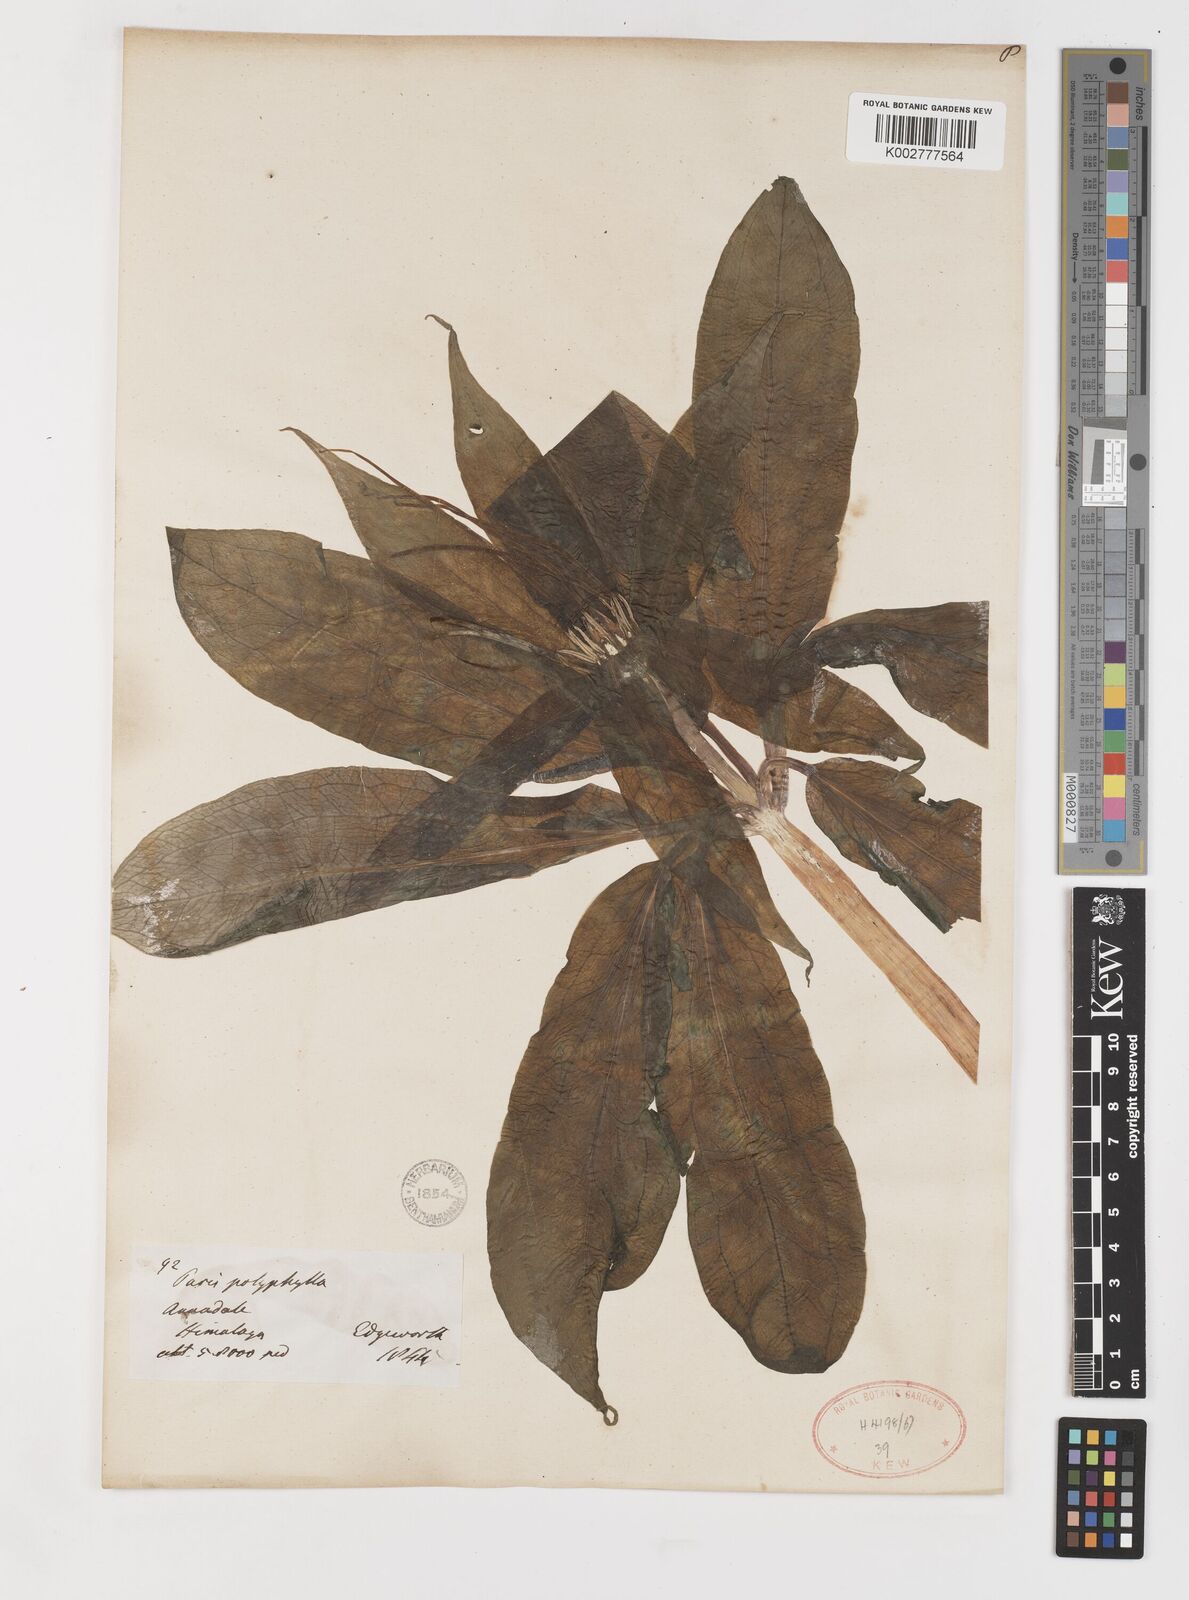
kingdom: Plantae
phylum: Tracheophyta
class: Liliopsida
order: Liliales
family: Melanthiaceae
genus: Paris
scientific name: Paris polyphylla
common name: Love apple
